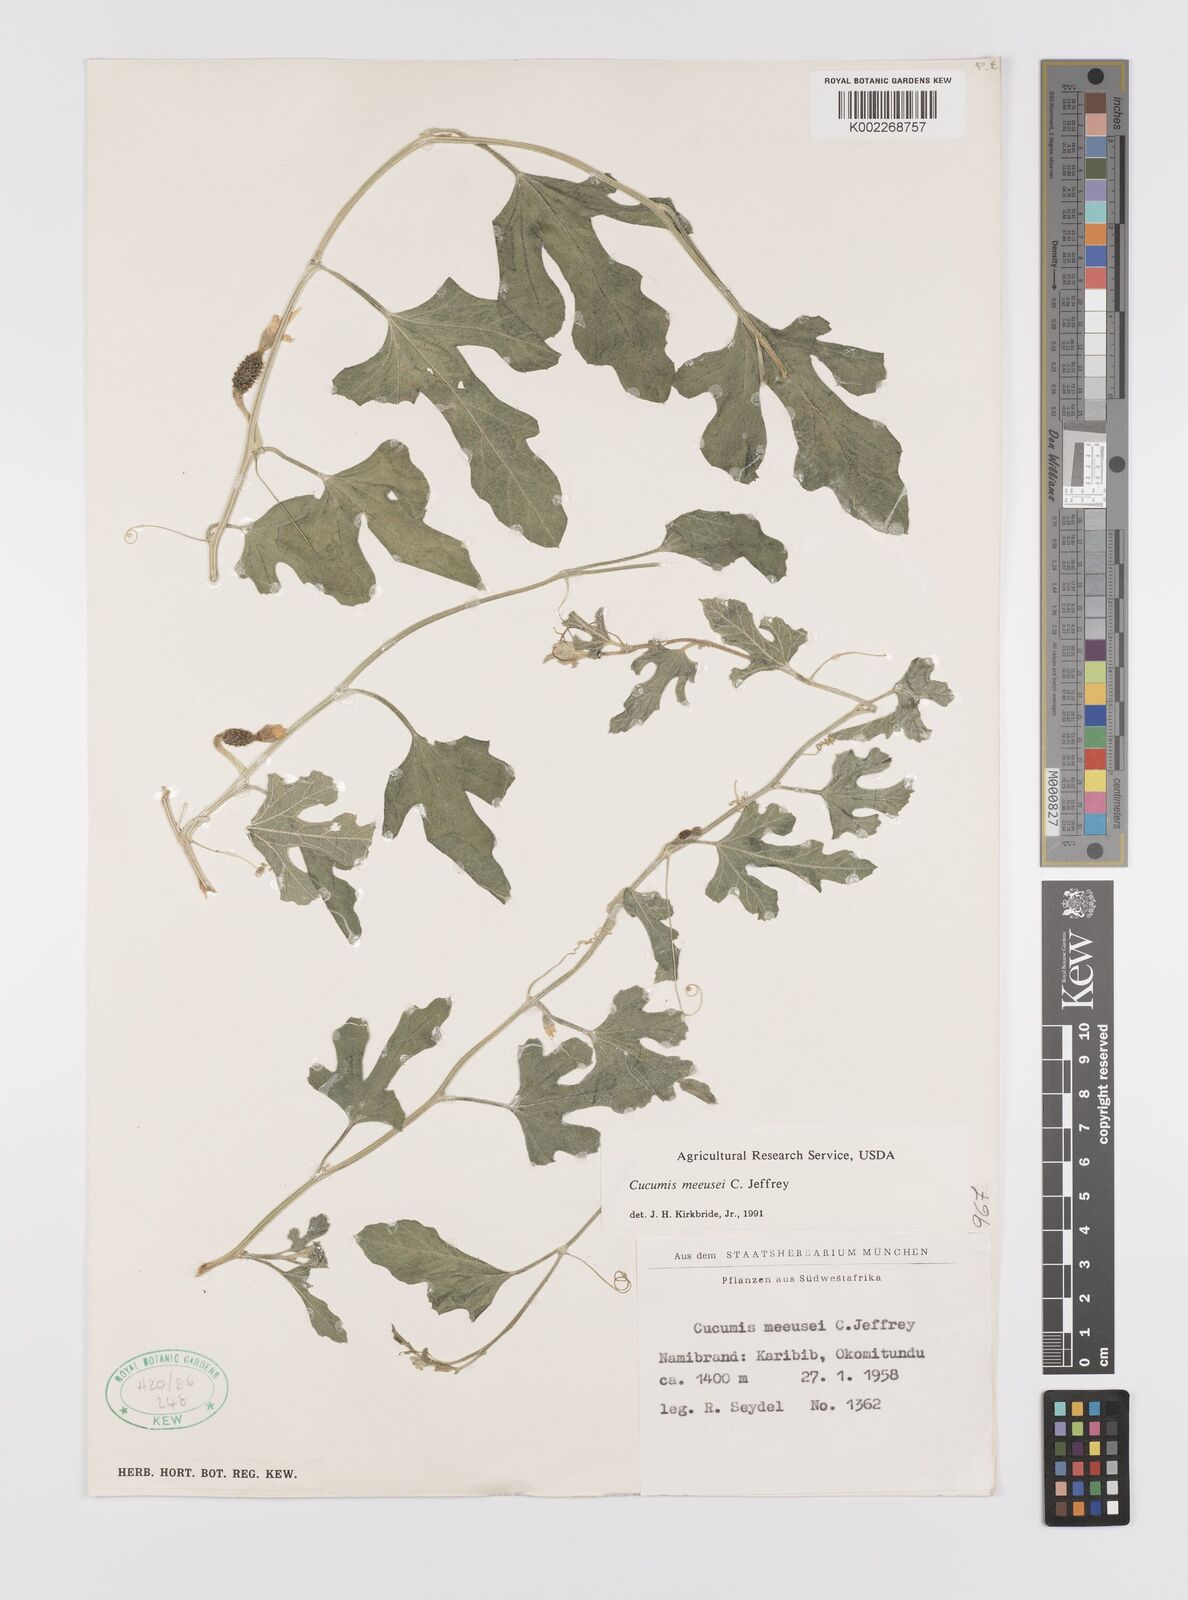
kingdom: Plantae
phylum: Tracheophyta
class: Magnoliopsida
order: Cucurbitales
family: Cucurbitaceae
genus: Cucumis
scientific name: Cucumis meeusei
